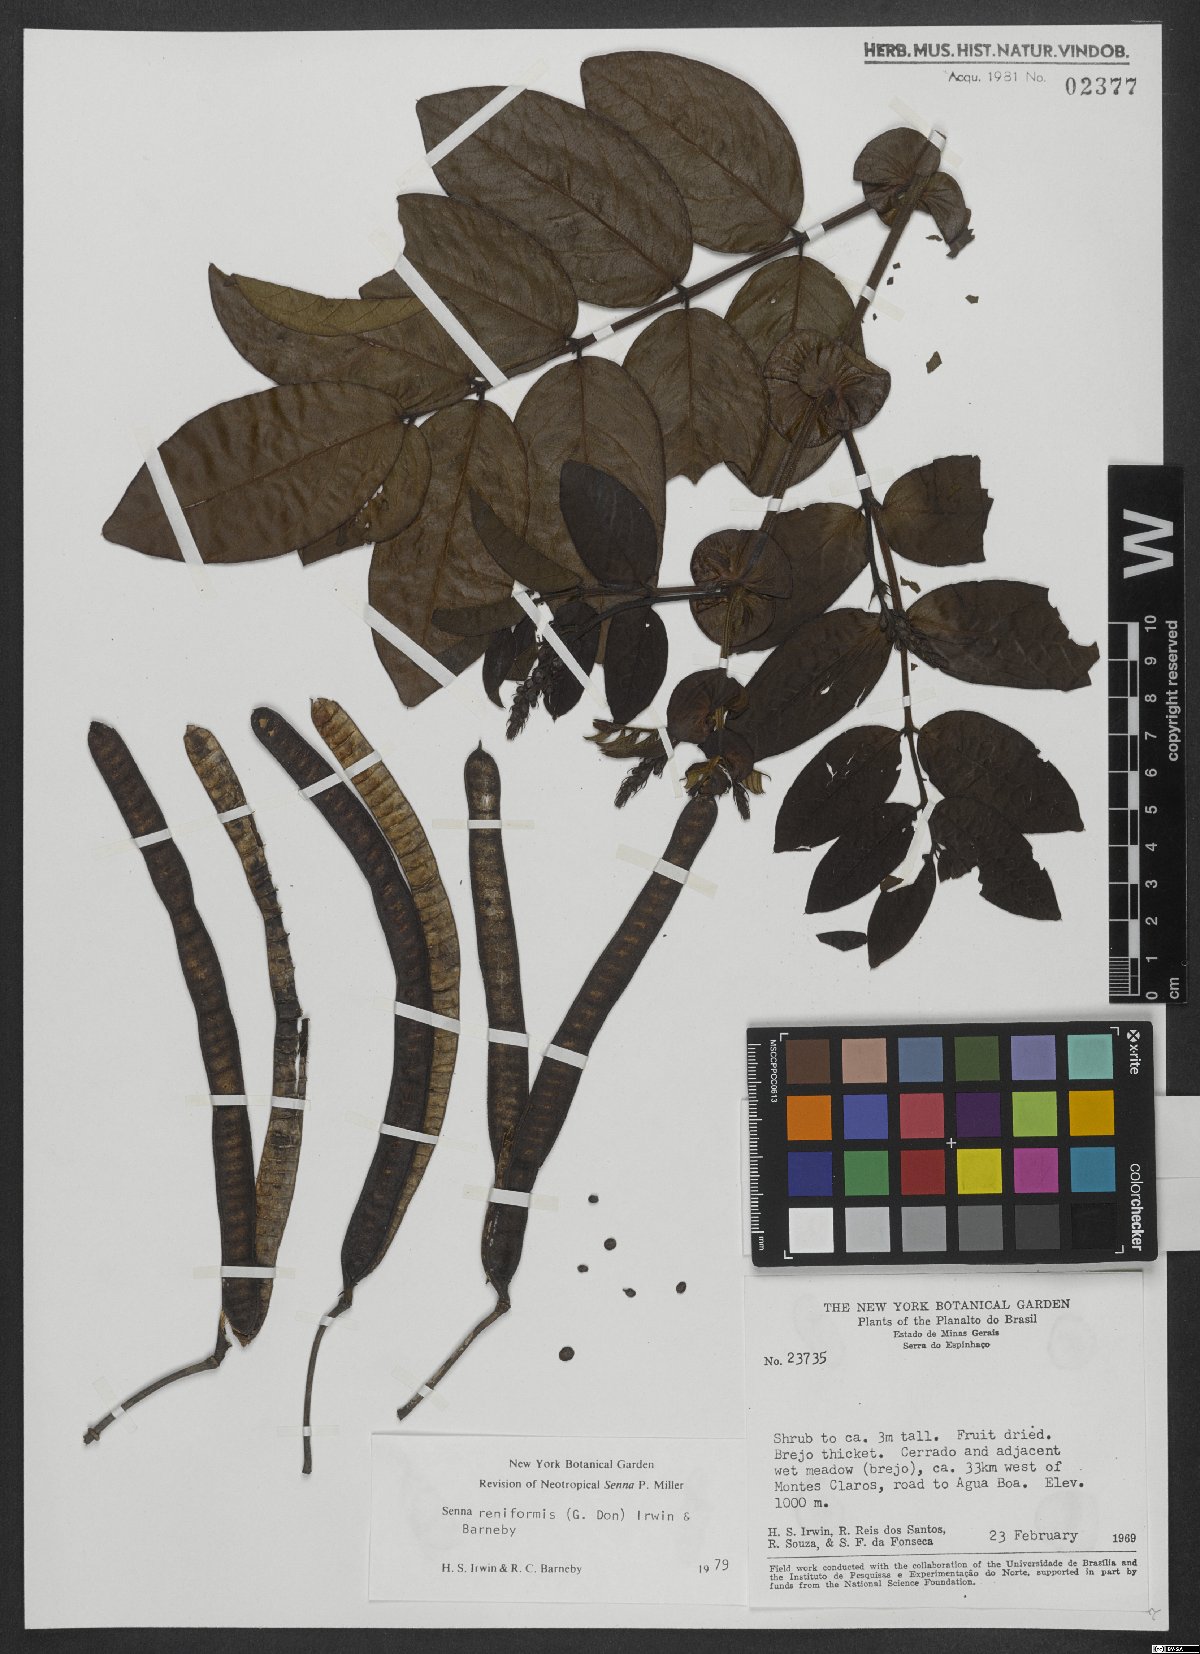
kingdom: Plantae
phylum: Tracheophyta
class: Magnoliopsida
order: Fabales
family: Fabaceae
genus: Senna
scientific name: Senna reniformis
